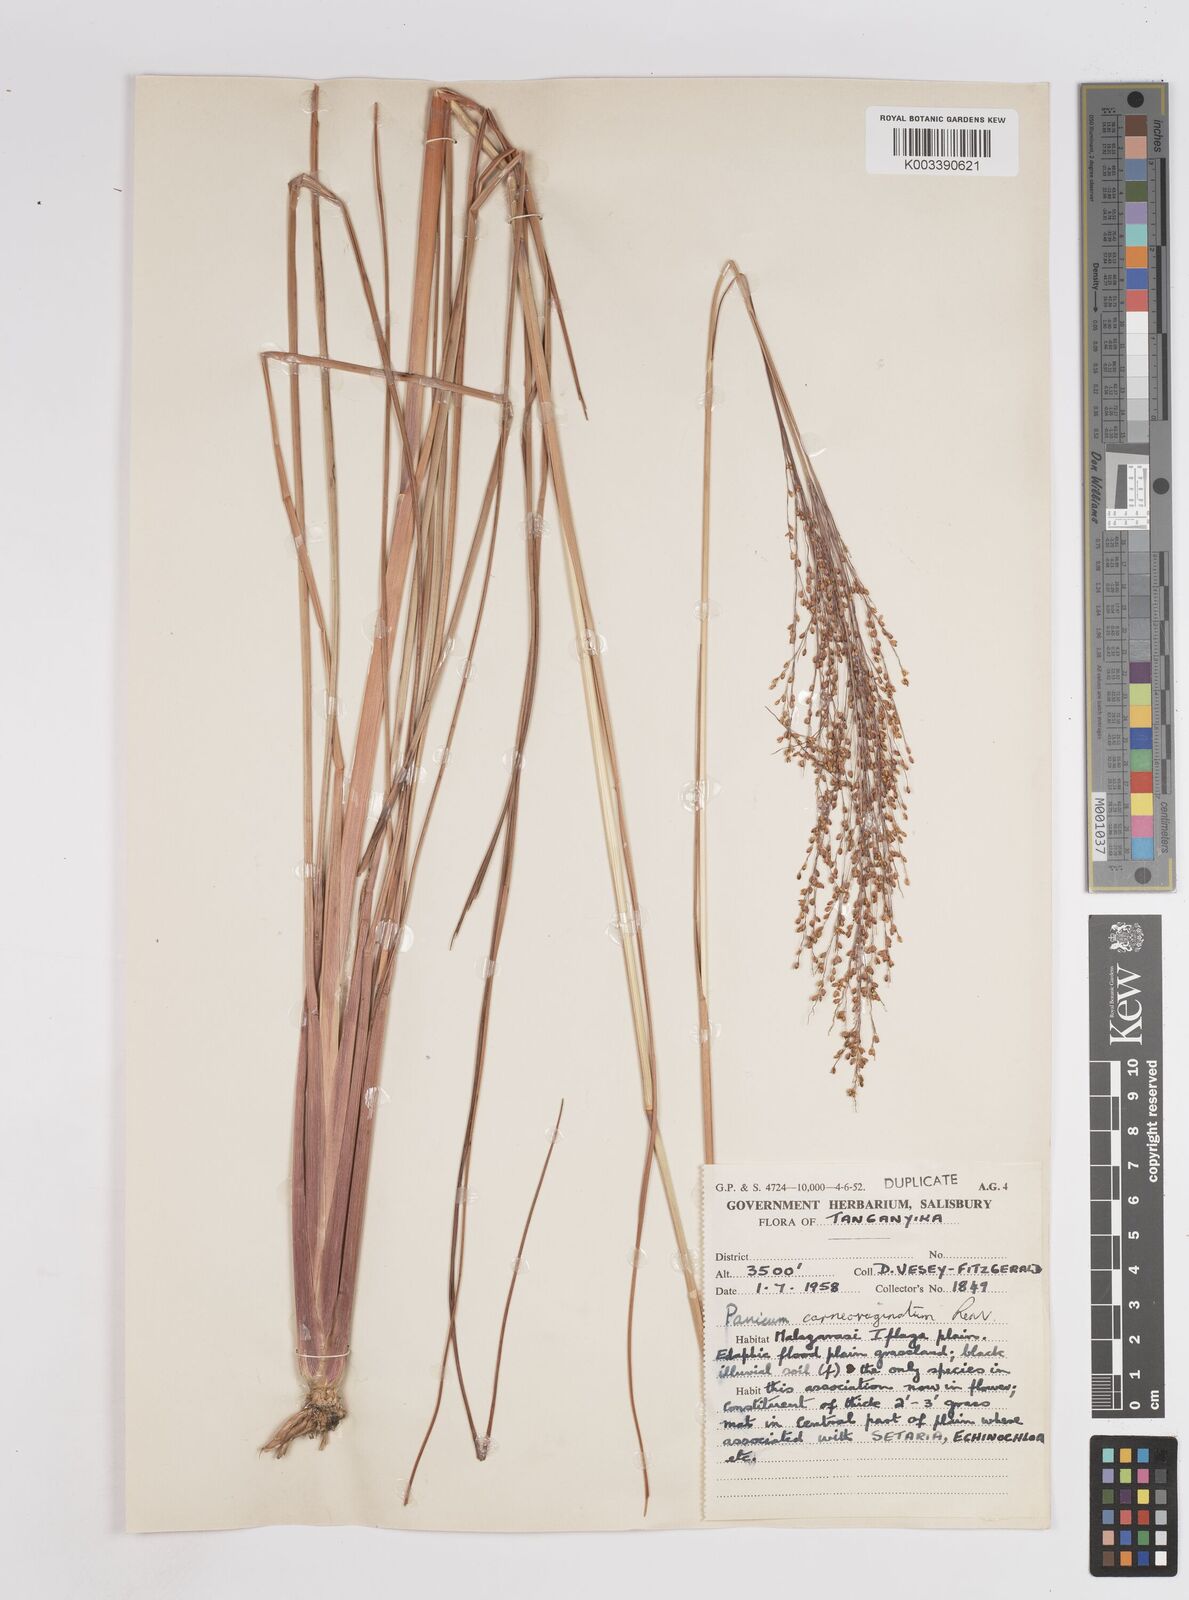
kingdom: Plantae
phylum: Tracheophyta
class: Liliopsida
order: Poales
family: Poaceae
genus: Panicum
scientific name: Panicum carneovaginatum
